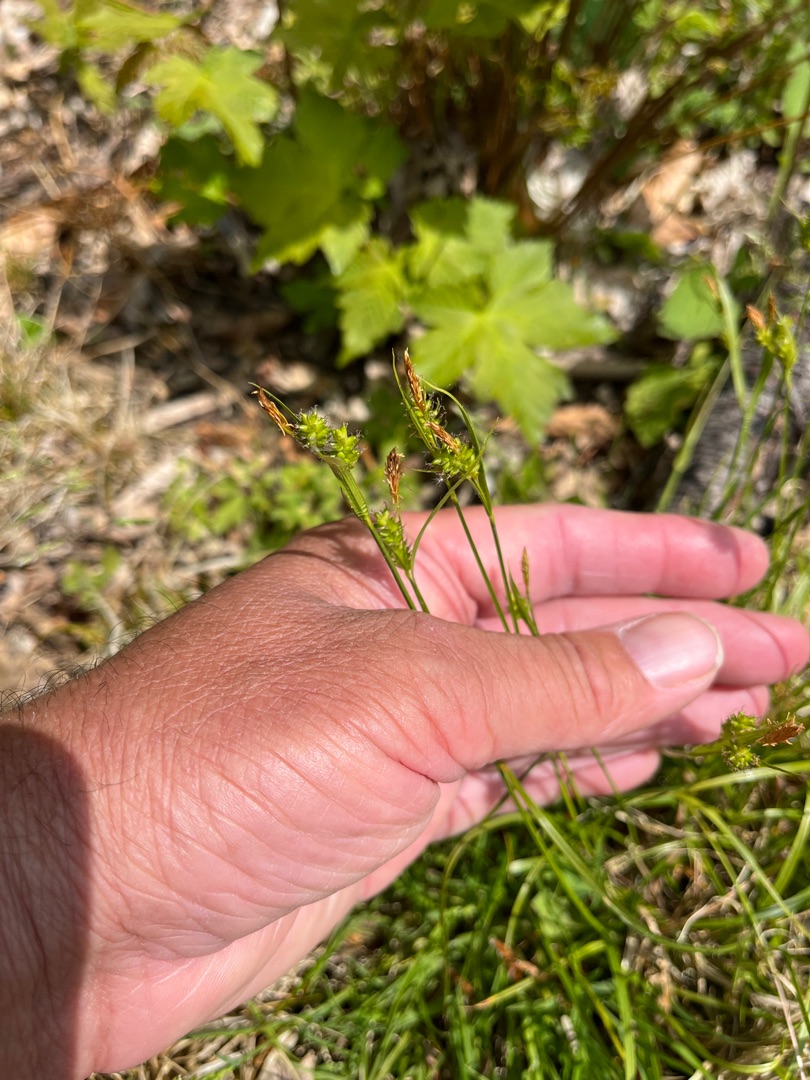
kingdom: Plantae
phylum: Tracheophyta
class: Liliopsida
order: Poales
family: Cyperaceae
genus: Carex
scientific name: Carex pallescens
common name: Bleg star
